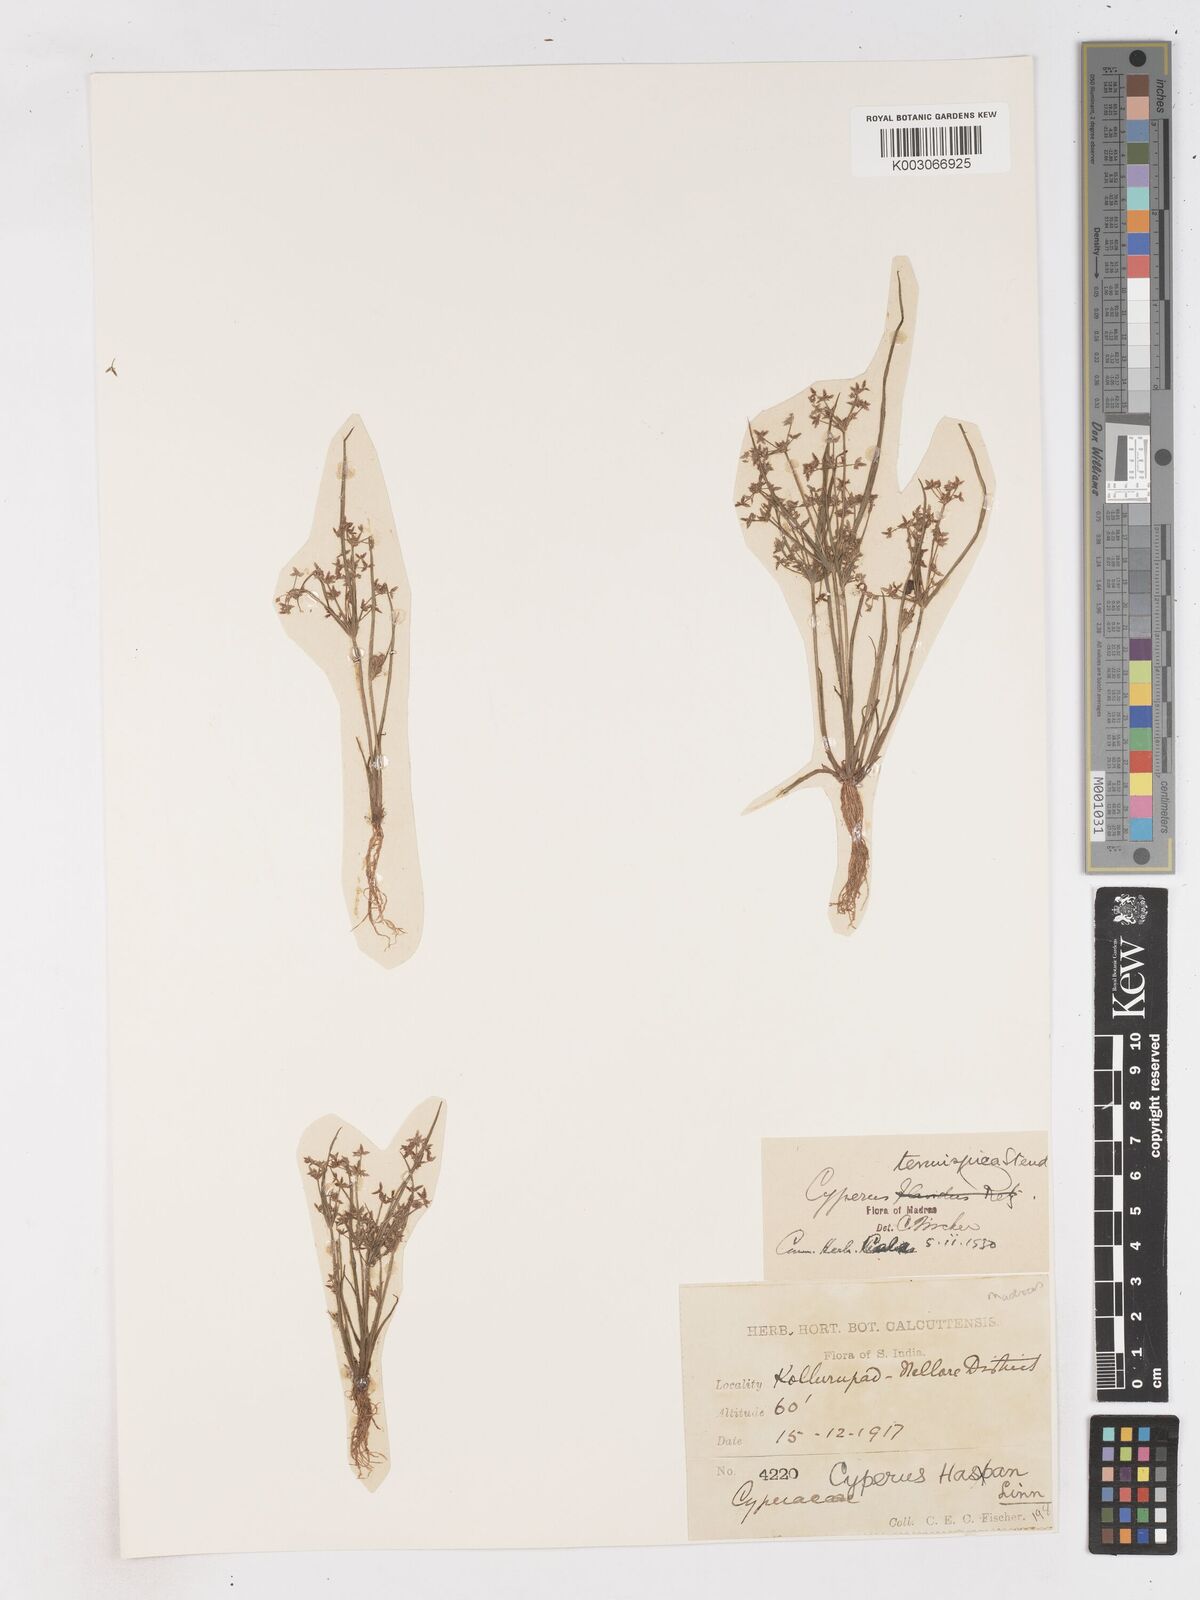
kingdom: Plantae
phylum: Tracheophyta
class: Liliopsida
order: Poales
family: Cyperaceae
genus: Cyperus
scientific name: Cyperus tenuispica
